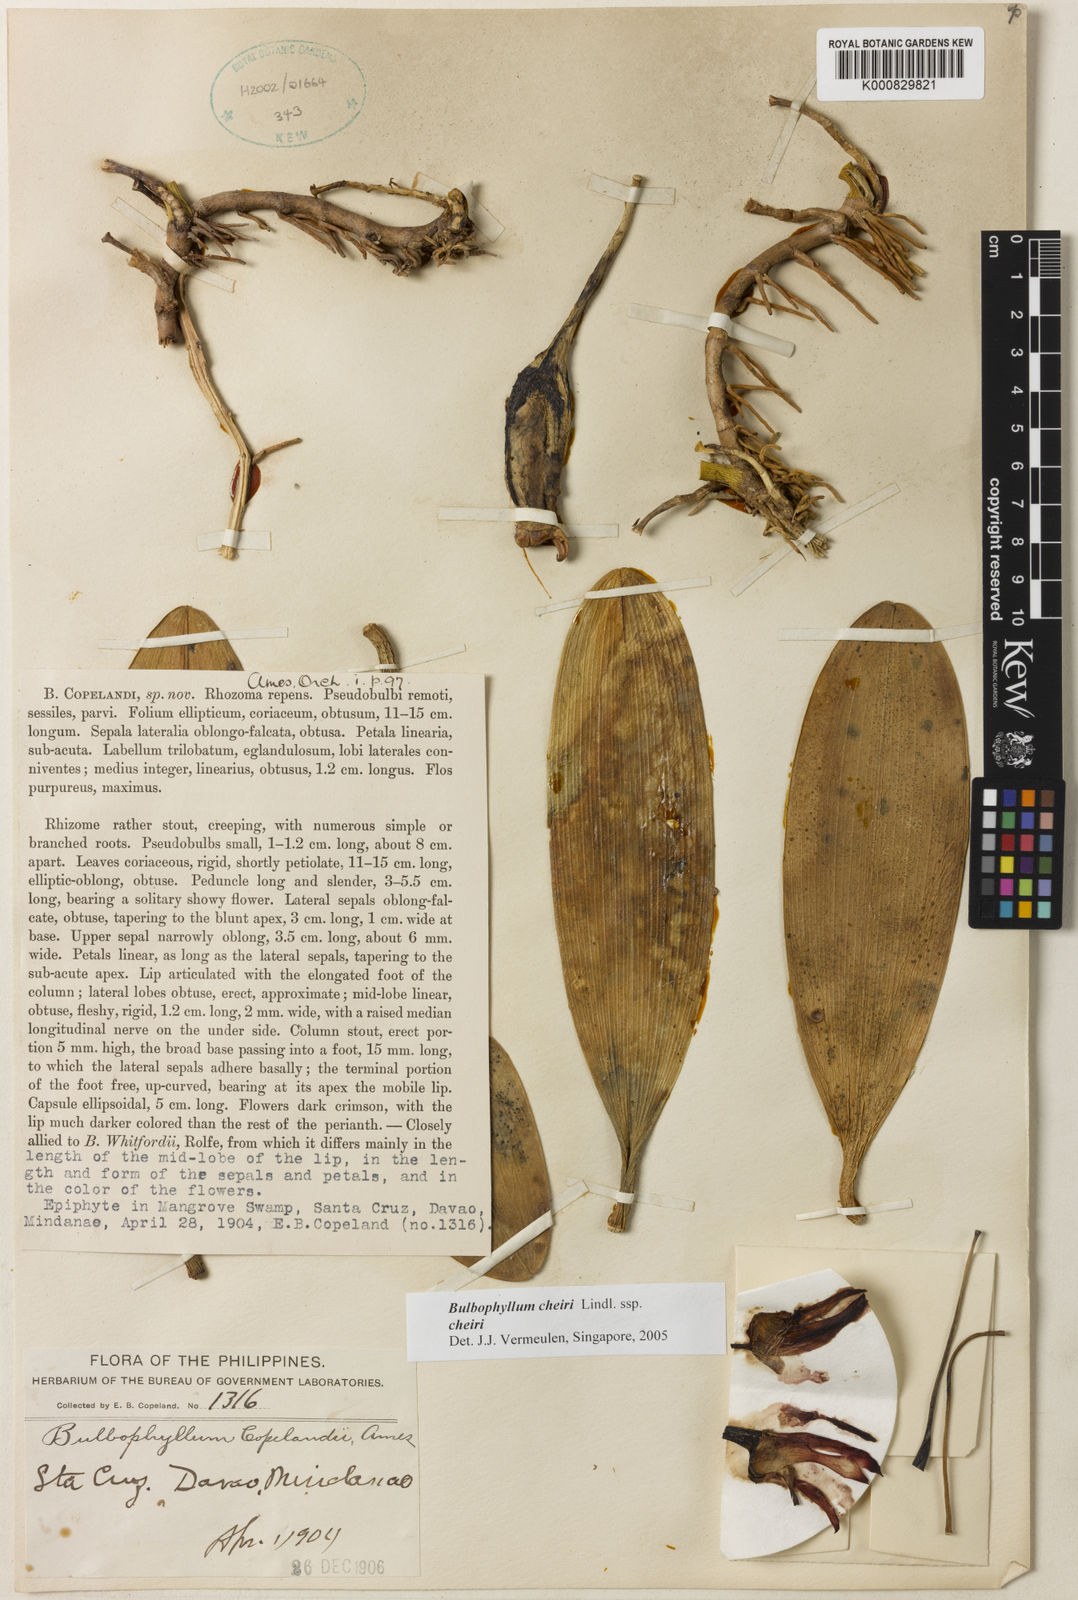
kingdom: Plantae
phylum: Tracheophyta
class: Liliopsida
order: Asparagales
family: Orchidaceae
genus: Bulbophyllum
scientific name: Bulbophyllum cheiri
